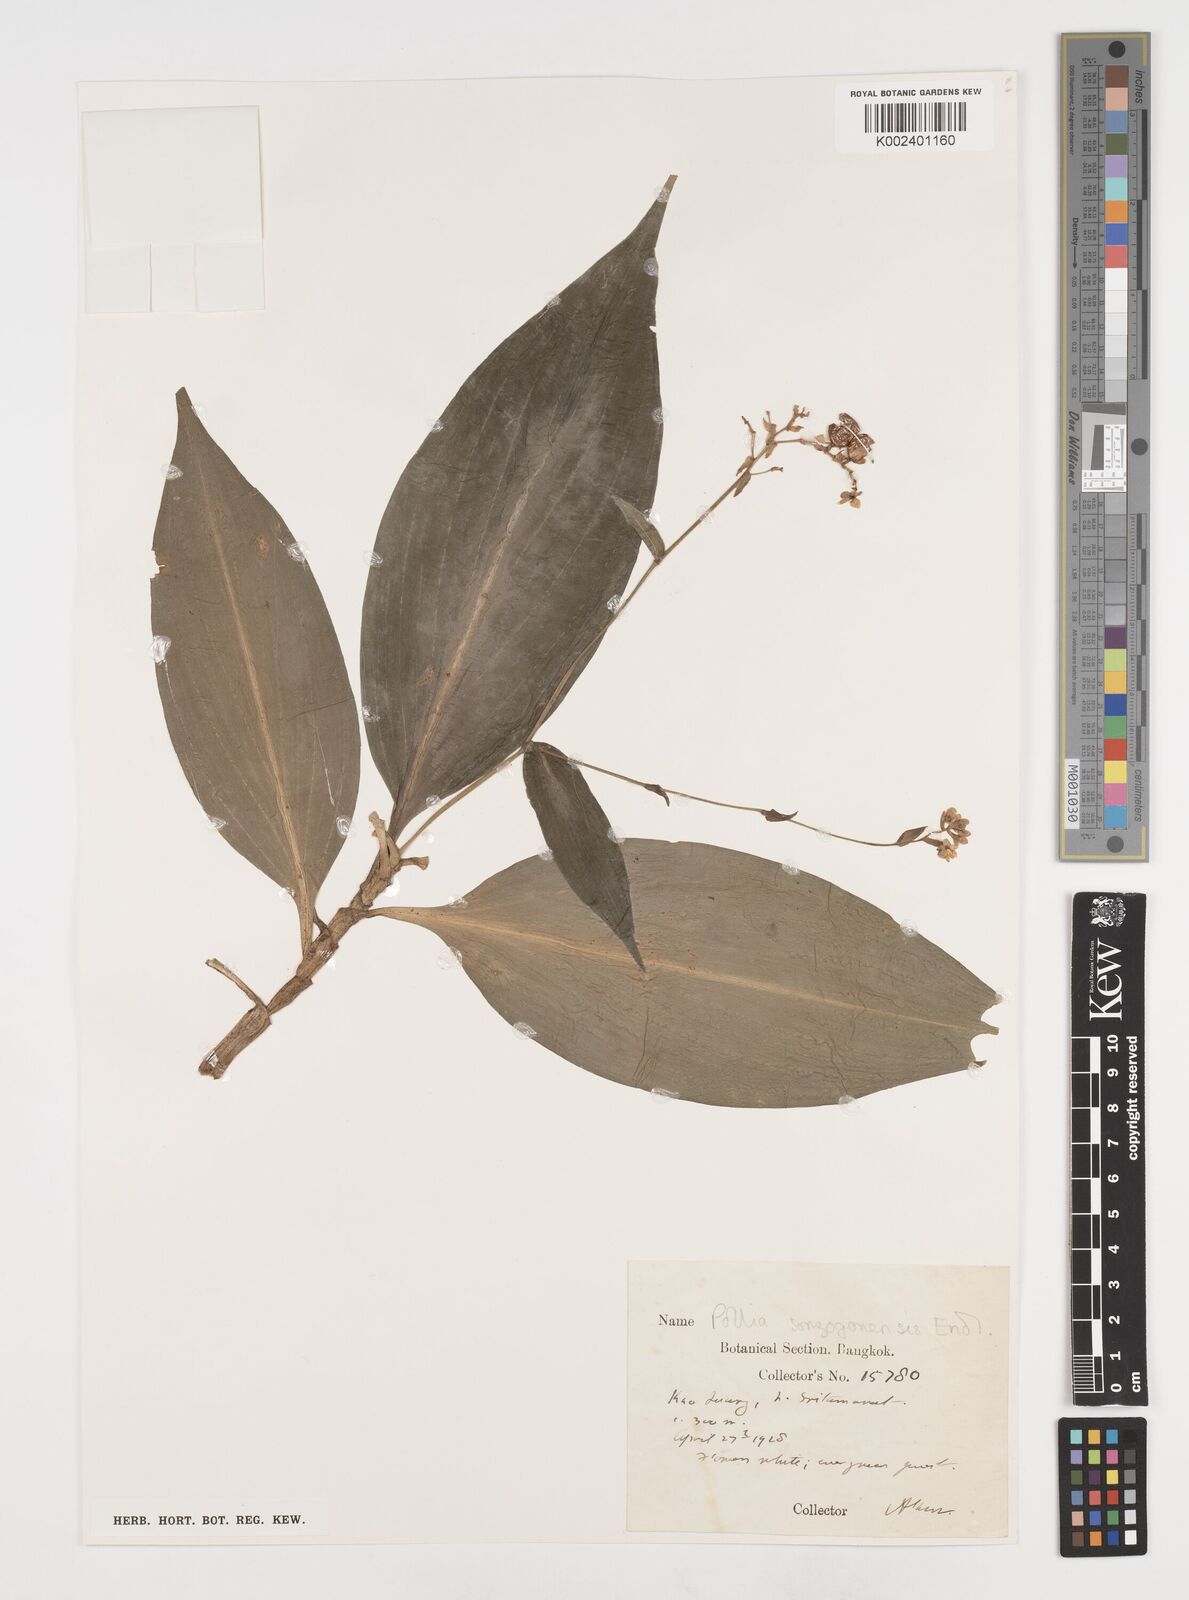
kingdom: Plantae
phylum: Tracheophyta
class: Liliopsida
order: Commelinales
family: Commelinaceae
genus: Pollia
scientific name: Pollia secundiflora
